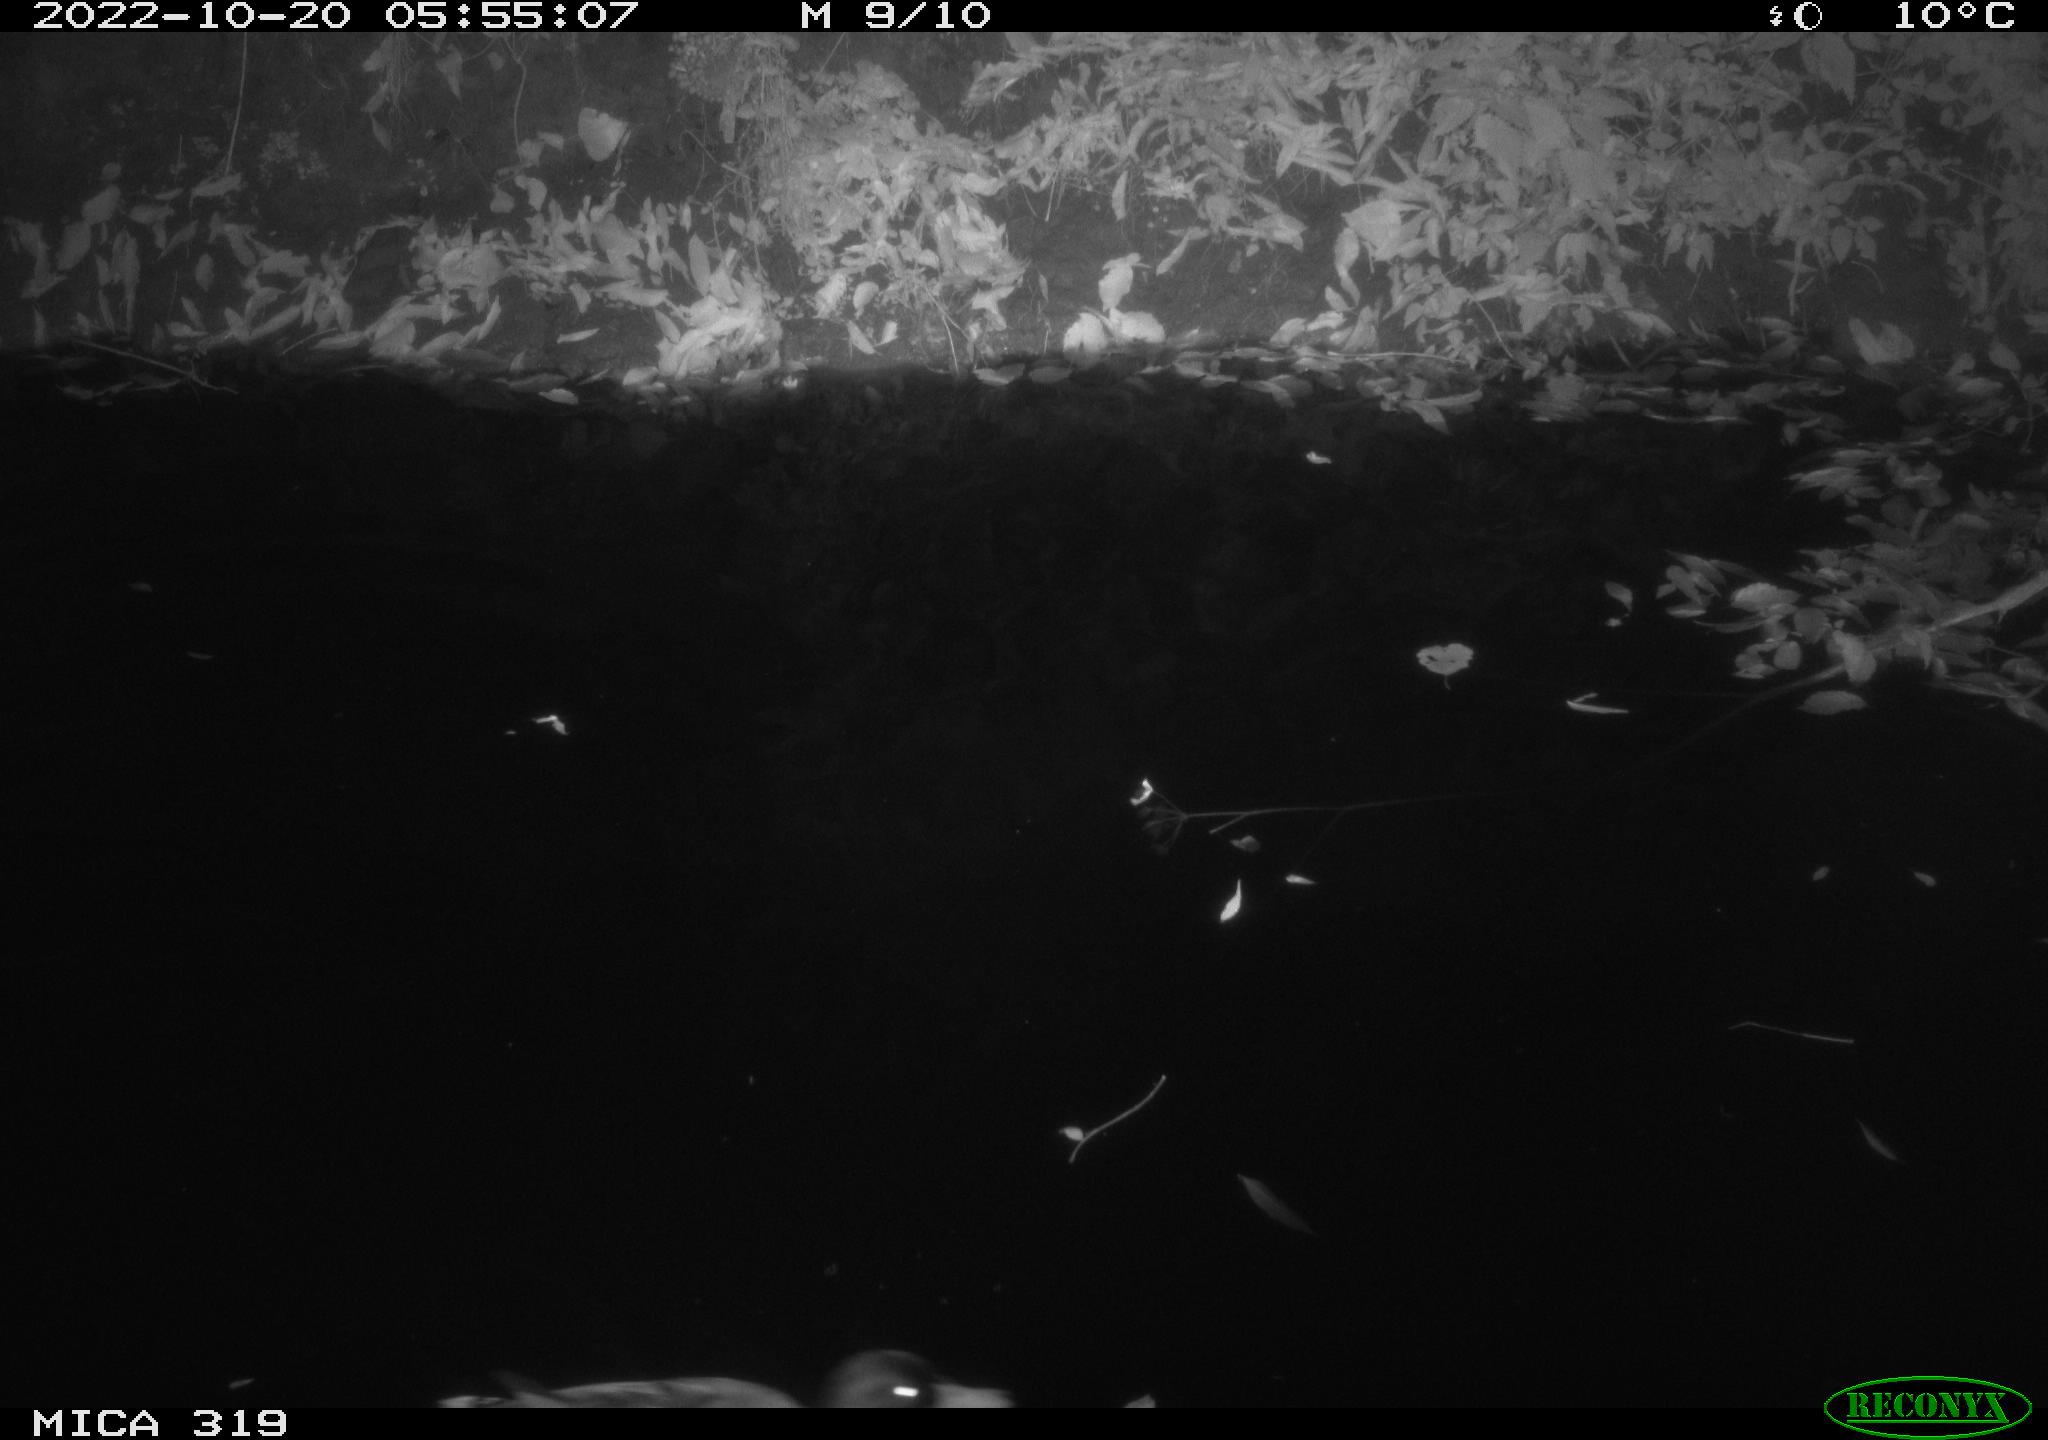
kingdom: Animalia
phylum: Chordata
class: Aves
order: Anseriformes
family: Anatidae
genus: Anas
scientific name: Anas
